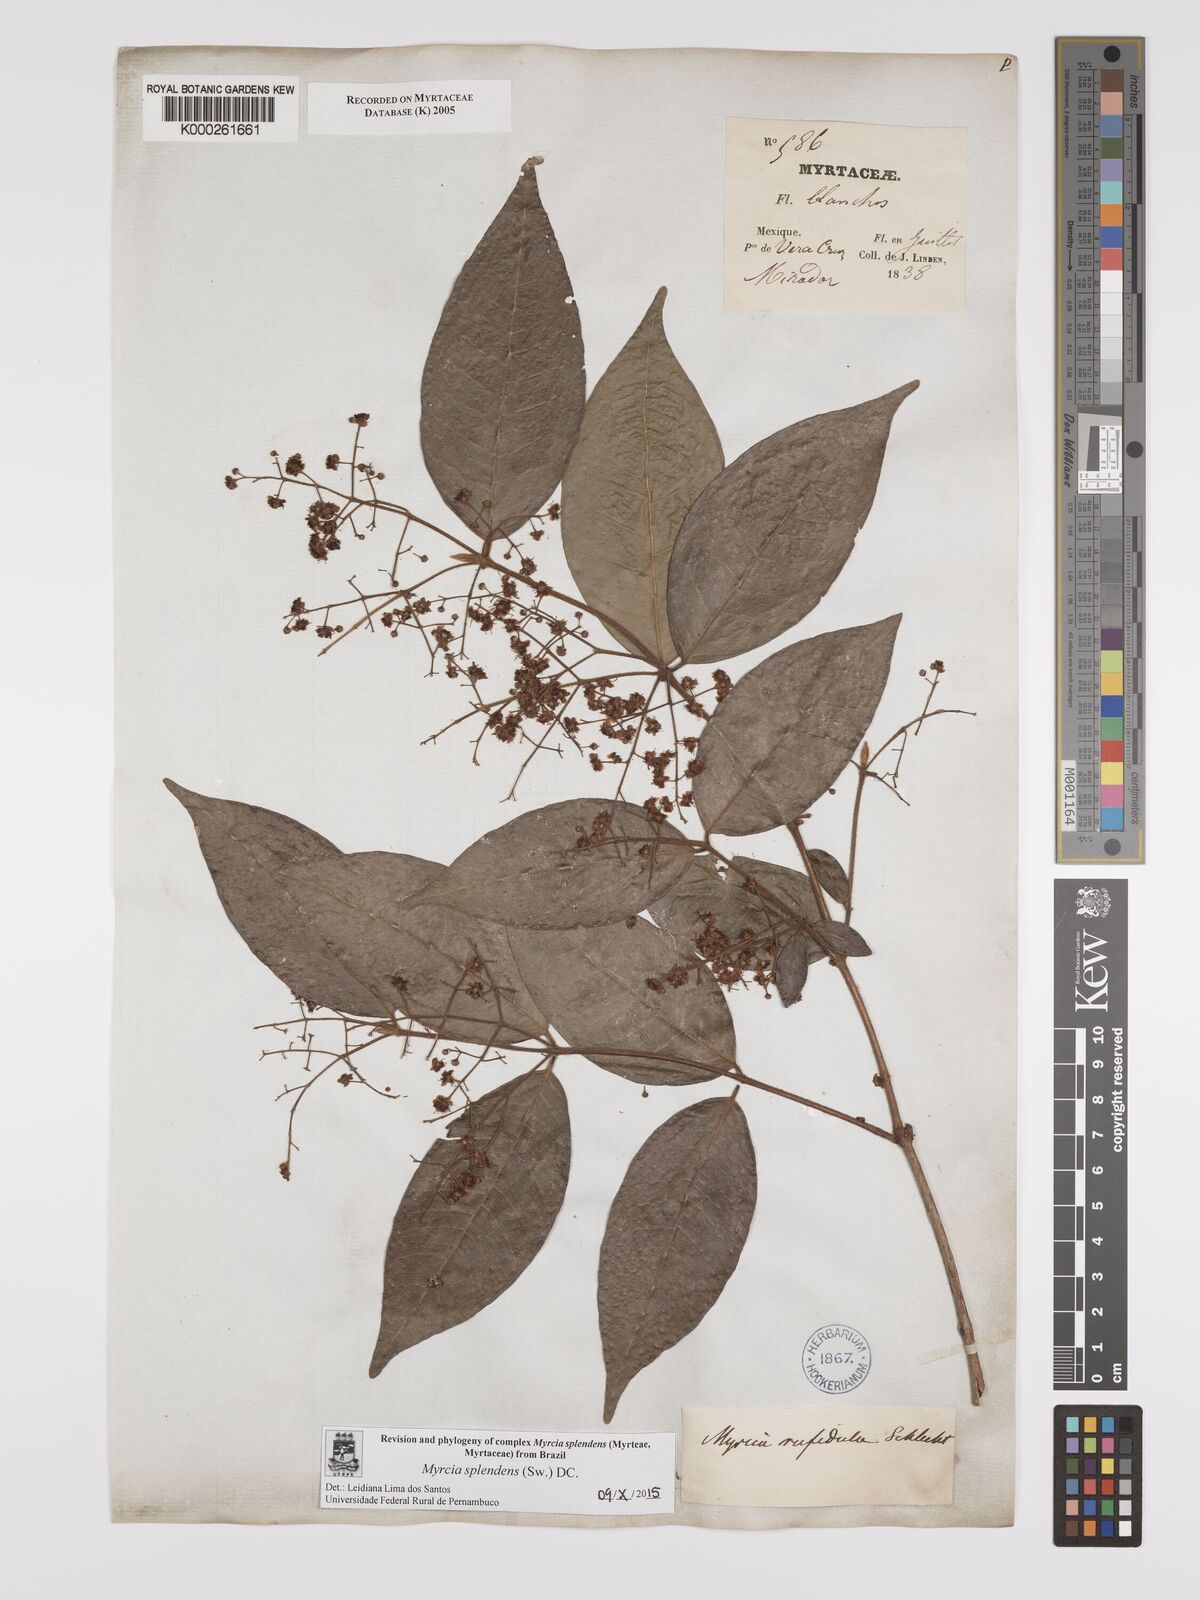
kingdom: Plantae
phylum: Tracheophyta
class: Magnoliopsida
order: Myrtales
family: Myrtaceae
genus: Myrcia
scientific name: Myrcia splendens
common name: Surinam cherry
